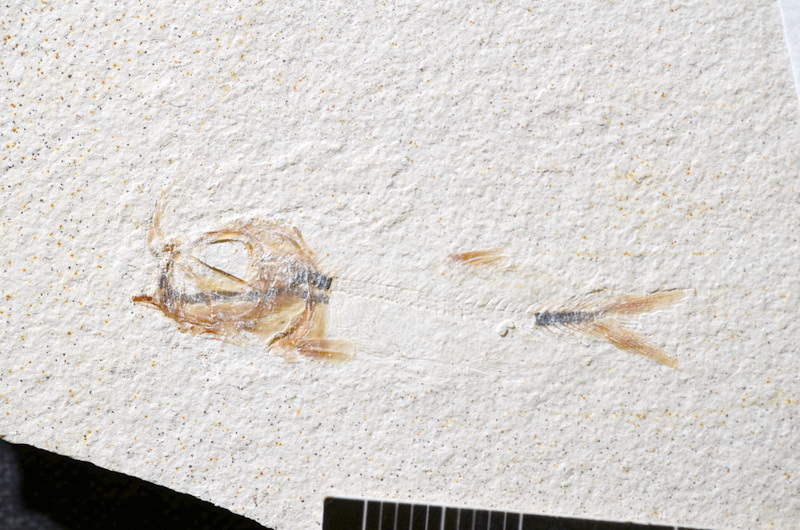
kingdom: Animalia
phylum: Chordata
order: Salmoniformes
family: Orthogonikleithridae
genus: Orthogonikleithrus
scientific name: Orthogonikleithrus hoelli
